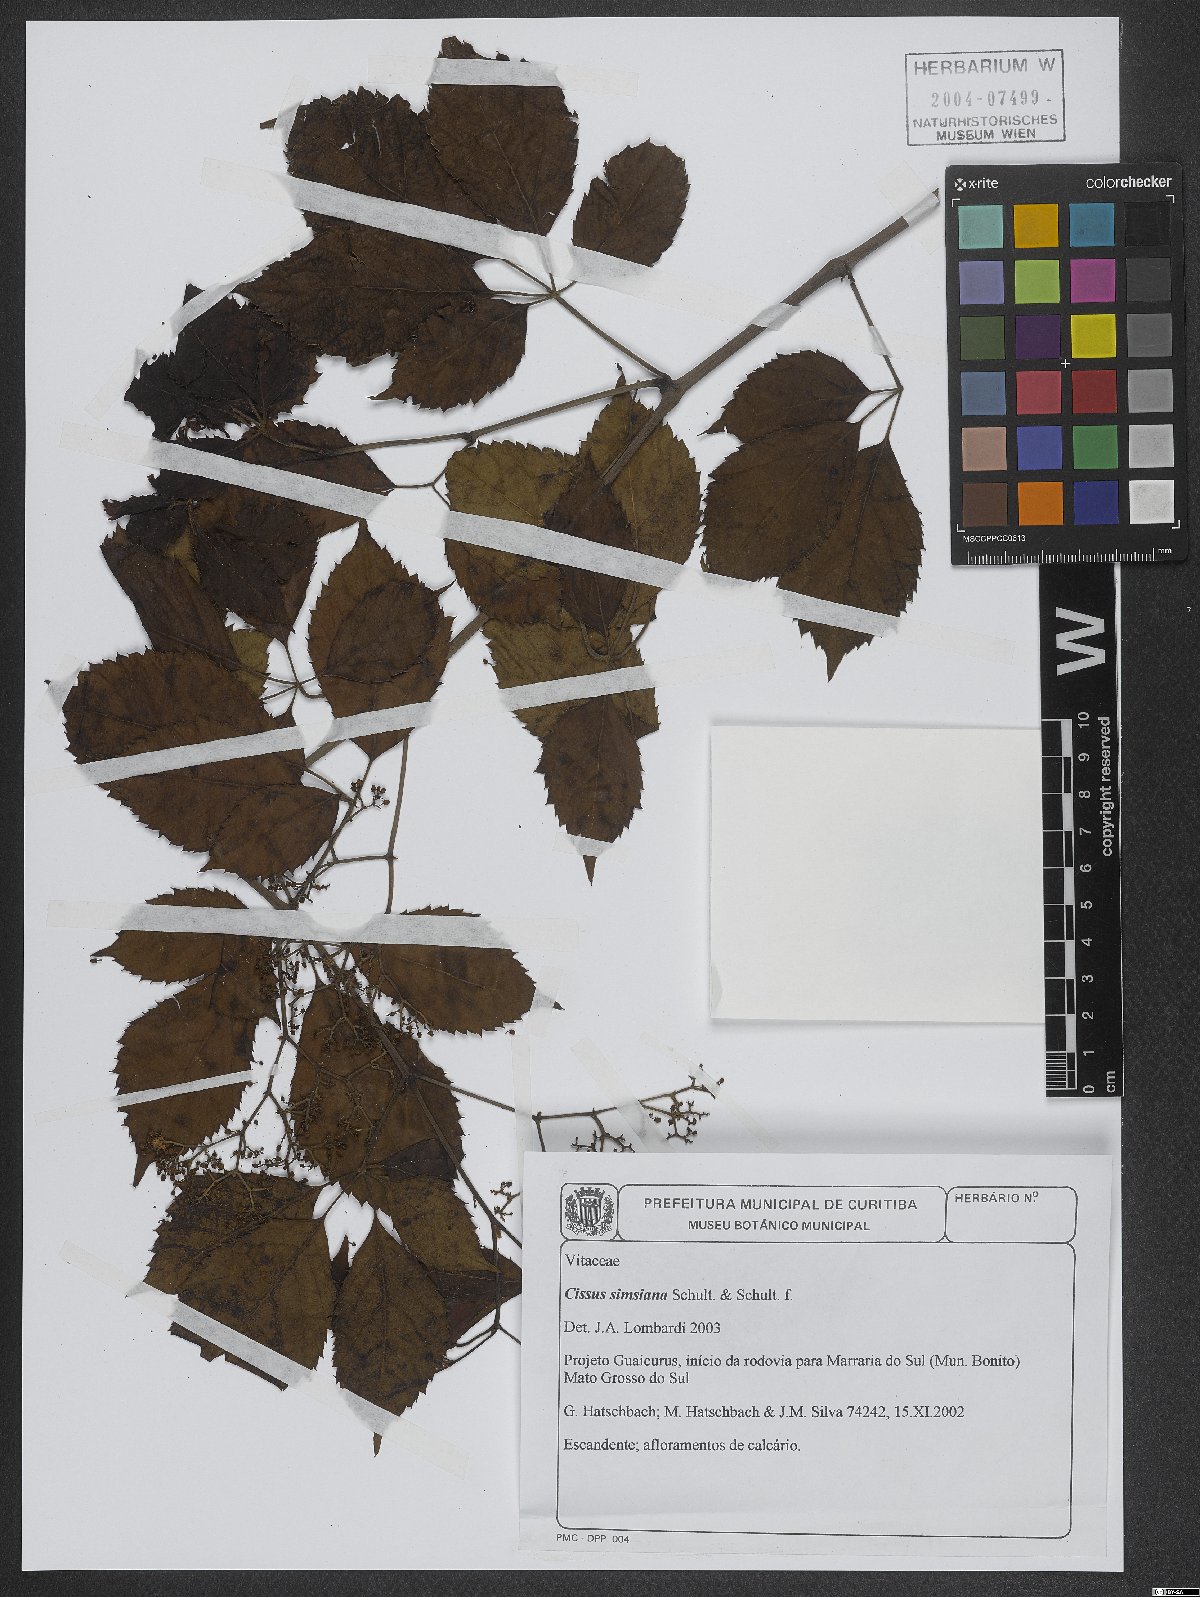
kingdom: Plantae
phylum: Tracheophyta
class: Magnoliopsida
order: Vitales
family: Vitaceae
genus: Clematicissus
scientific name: Clematicissus simsiana
